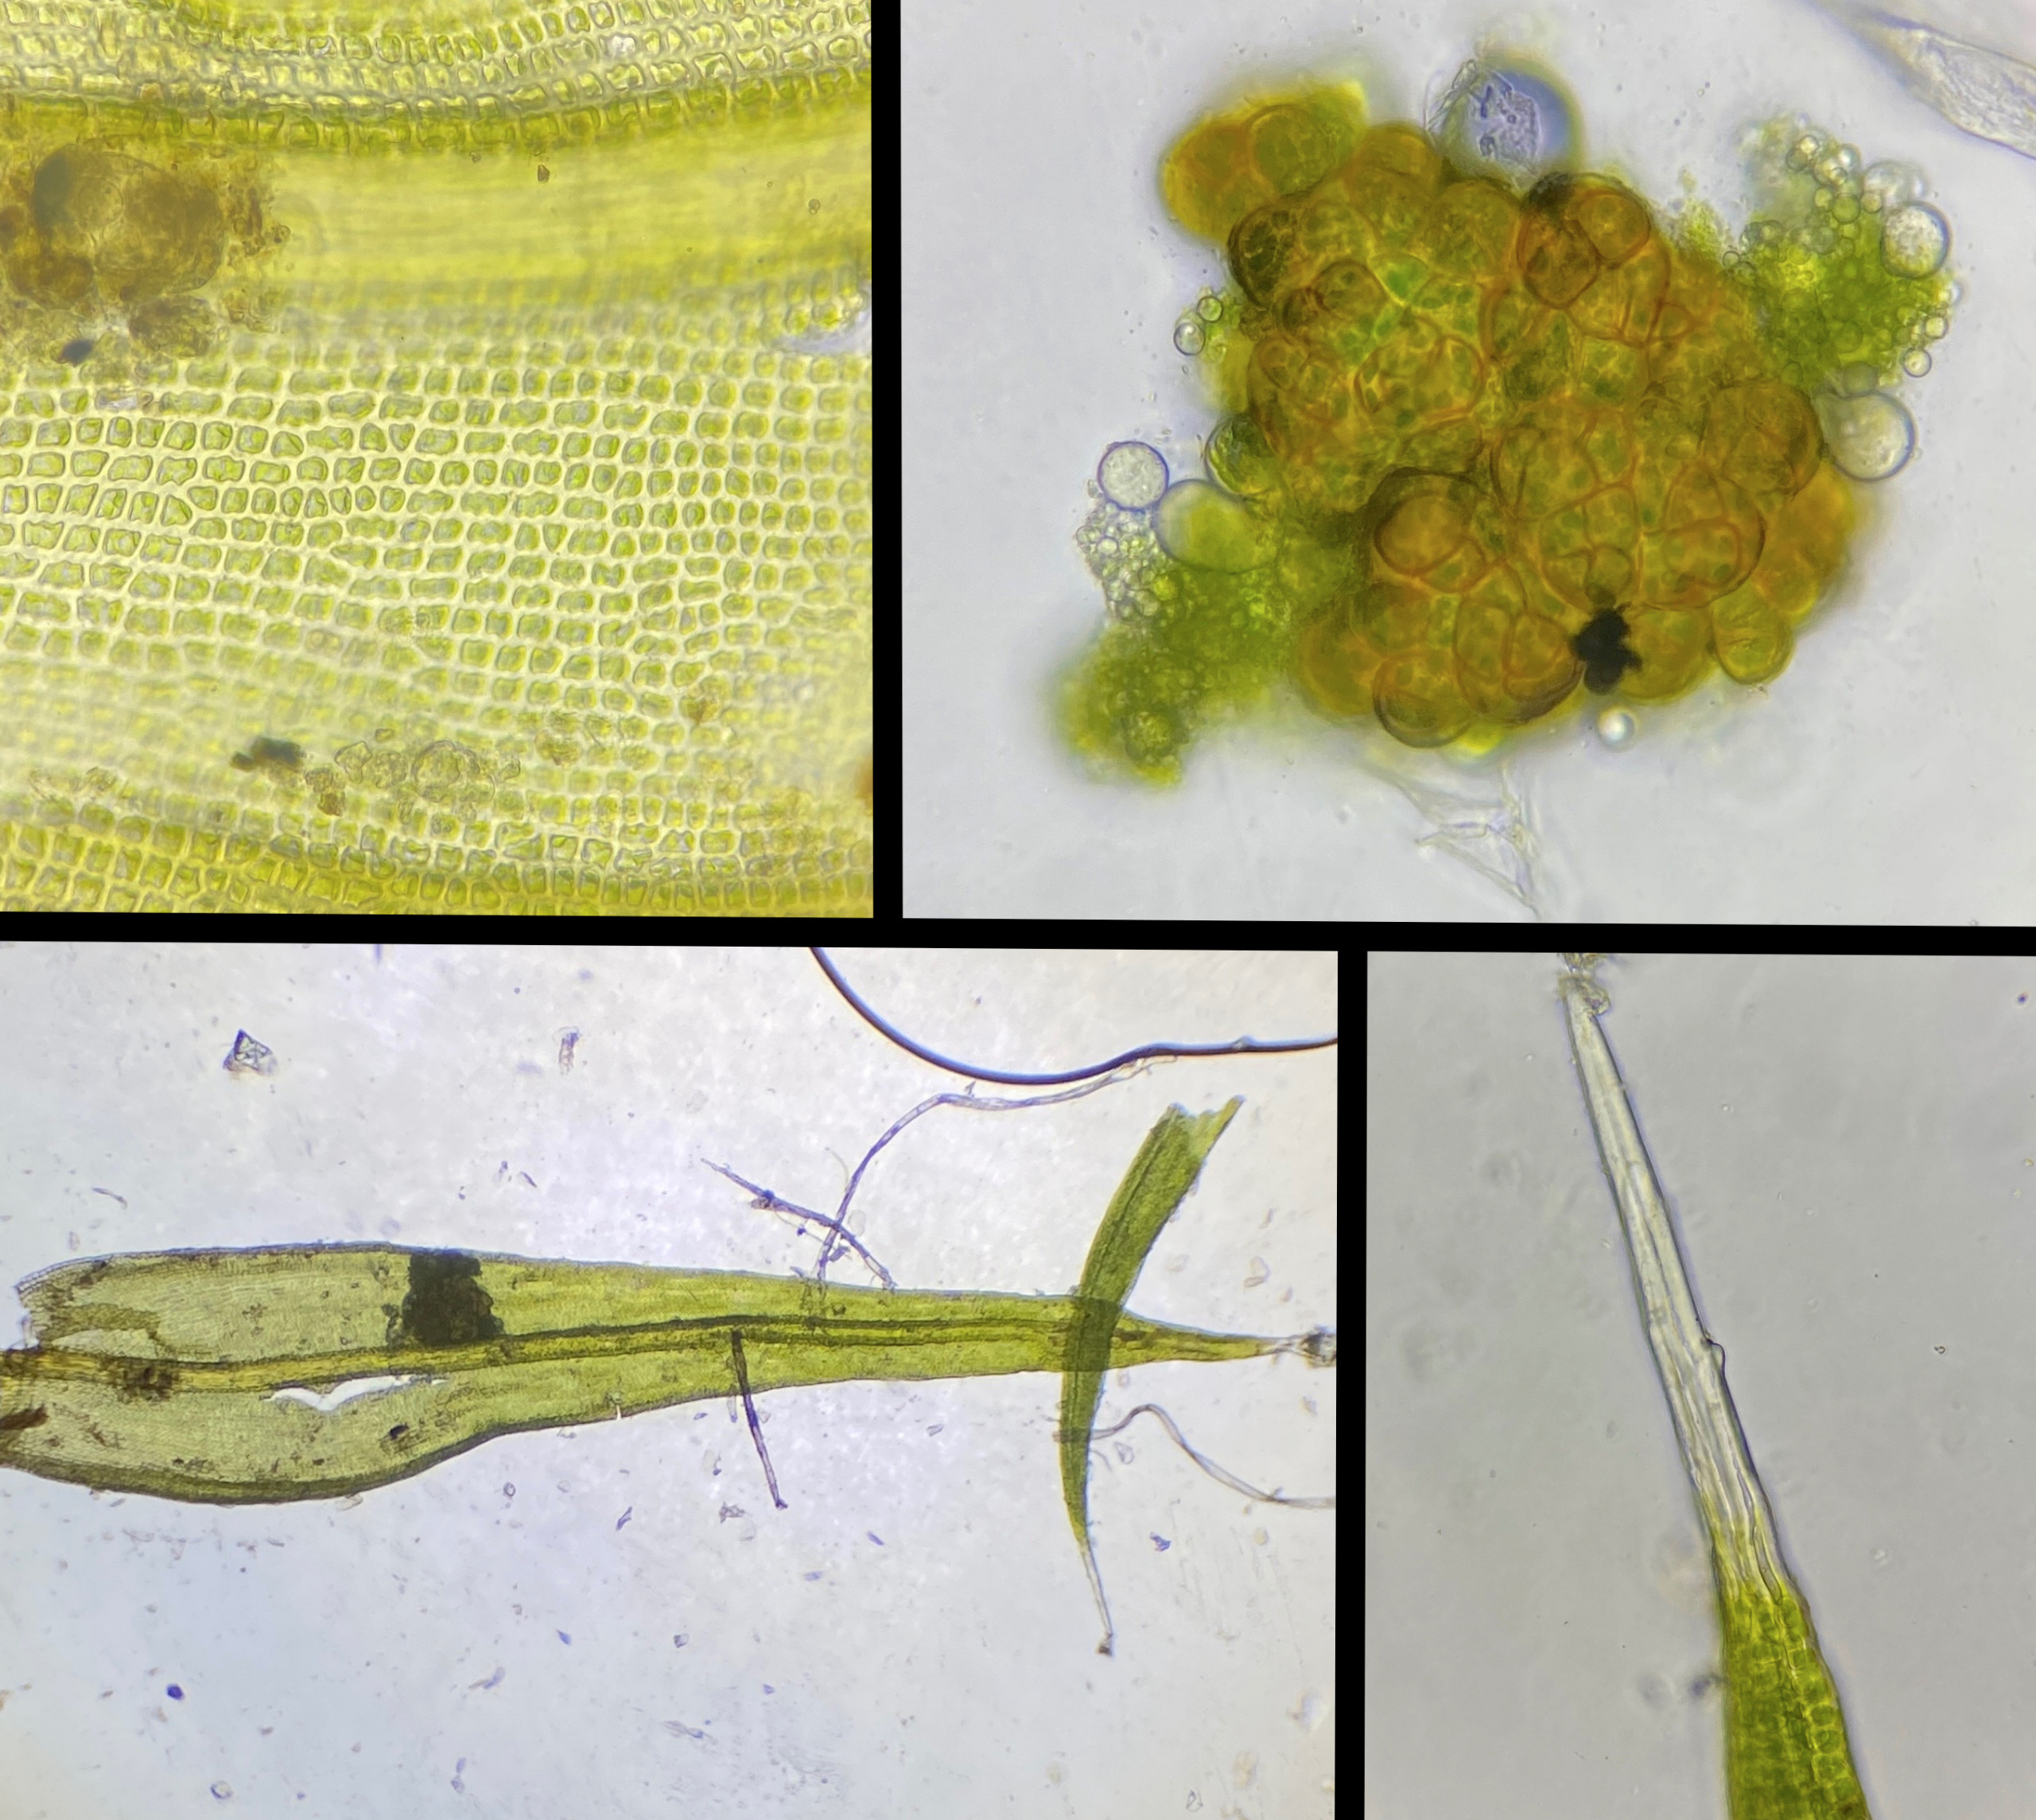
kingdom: Plantae
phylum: Bryophyta
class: Bryopsida
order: Grimmiales
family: Grimmiaceae
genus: Grimmia
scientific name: Grimmia hartmanii
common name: Hartmans gråmos
